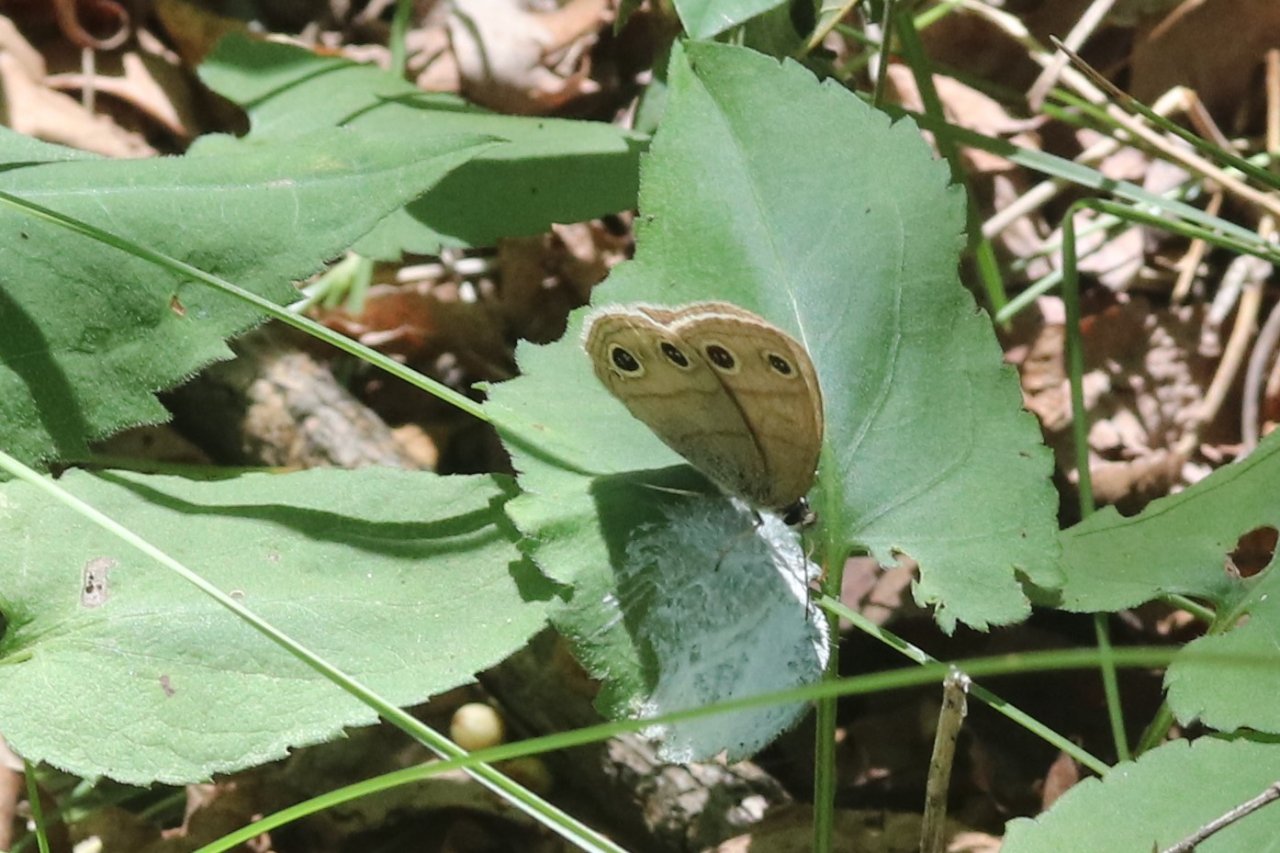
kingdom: Animalia
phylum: Arthropoda
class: Insecta
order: Lepidoptera
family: Nymphalidae
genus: Euptychia
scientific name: Euptychia cymela
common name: Little Wood Satyr
